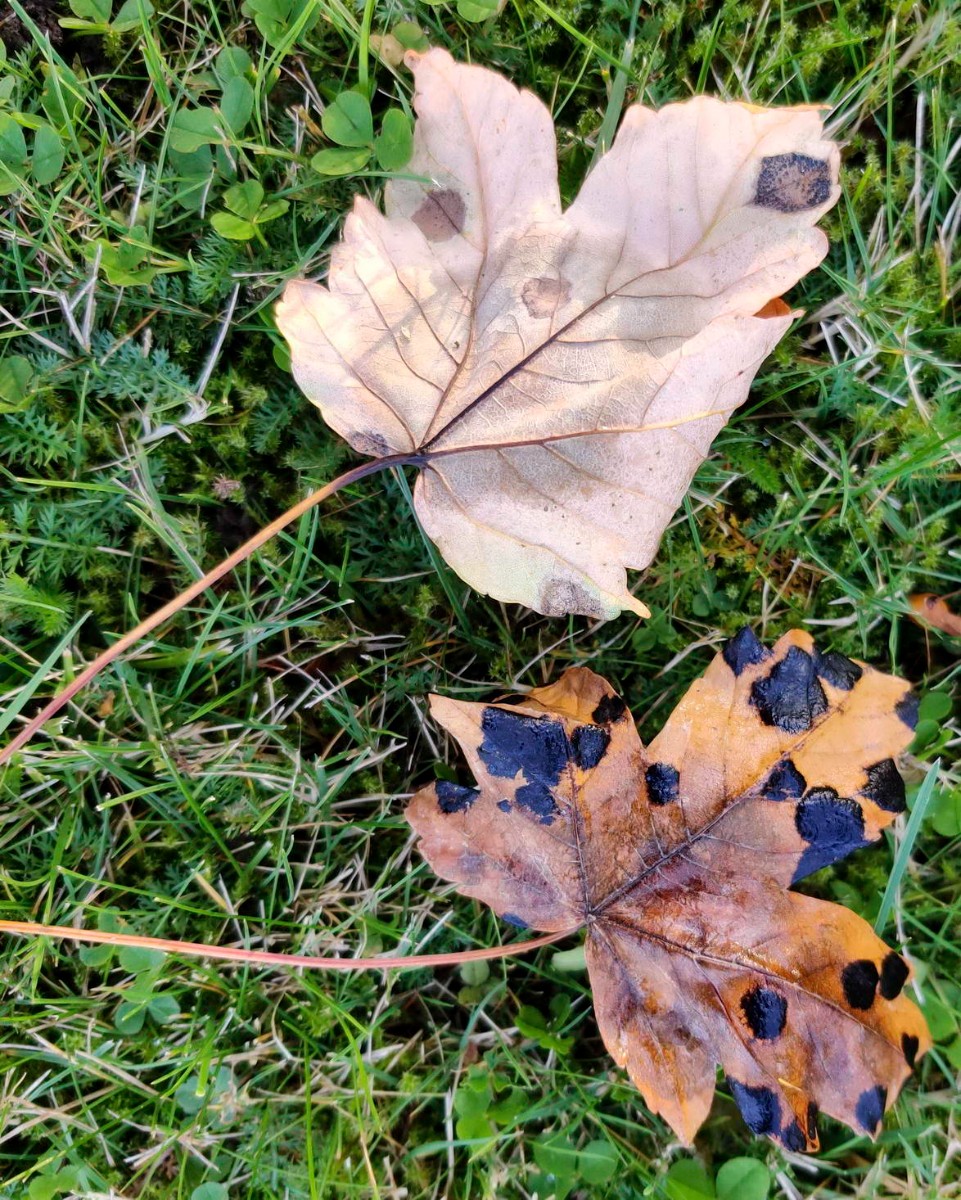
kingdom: Fungi
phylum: Ascomycota
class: Sordariomycetes
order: Diaporthales
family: Gnomoniaceae
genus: Pleuroceras
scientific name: Pleuroceras pseudoplatani
